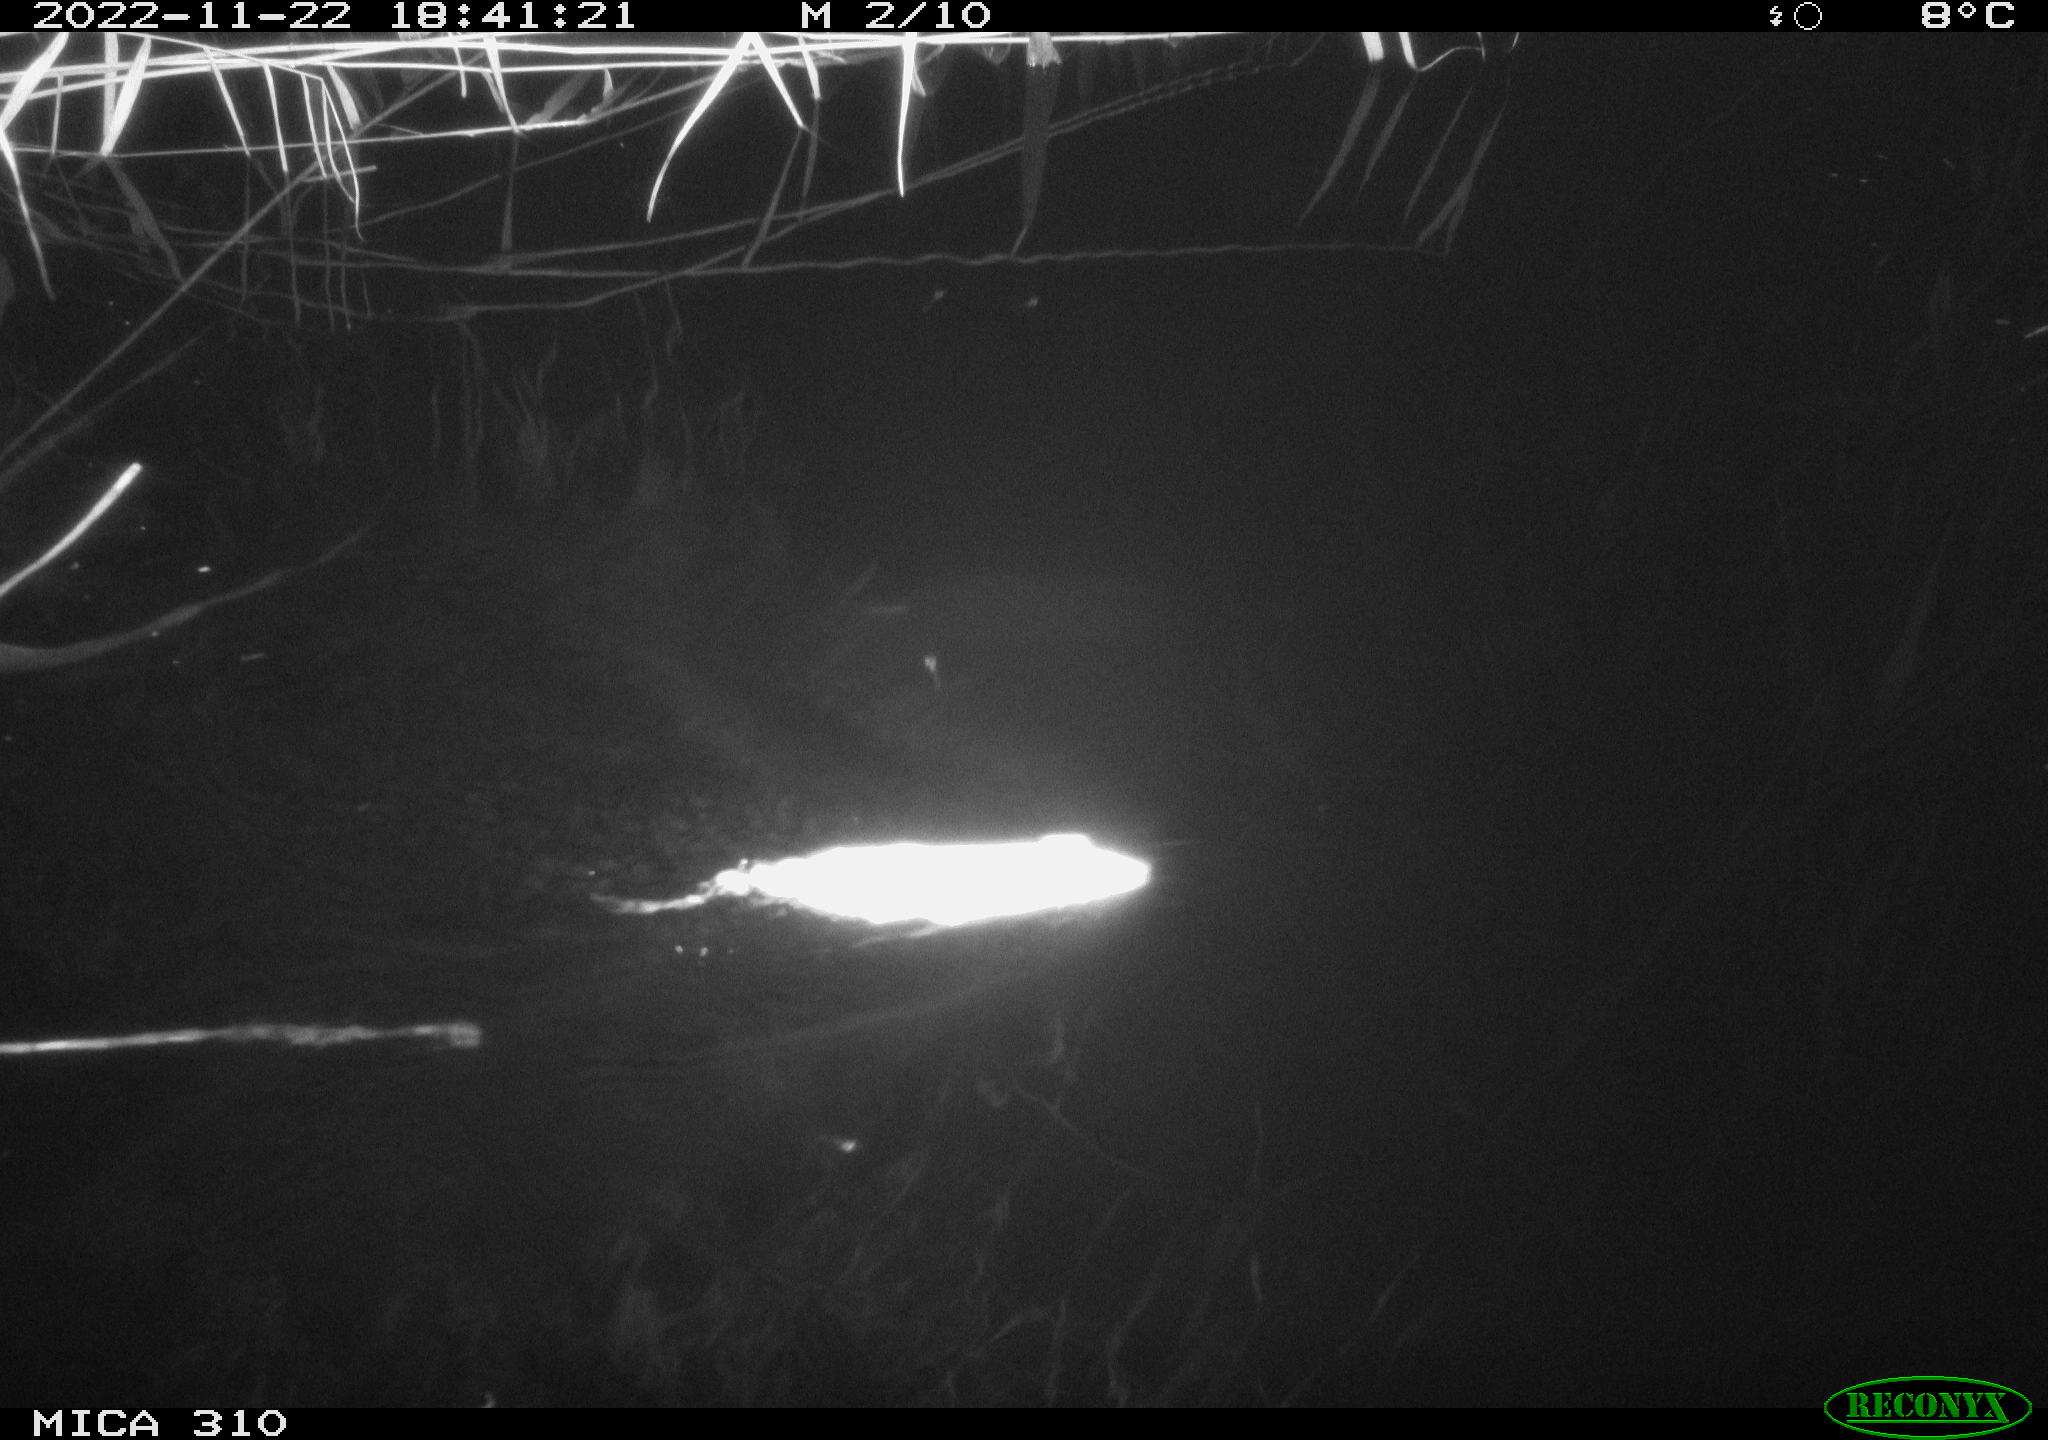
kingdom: Animalia
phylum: Chordata
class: Mammalia
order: Rodentia
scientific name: Rodentia
